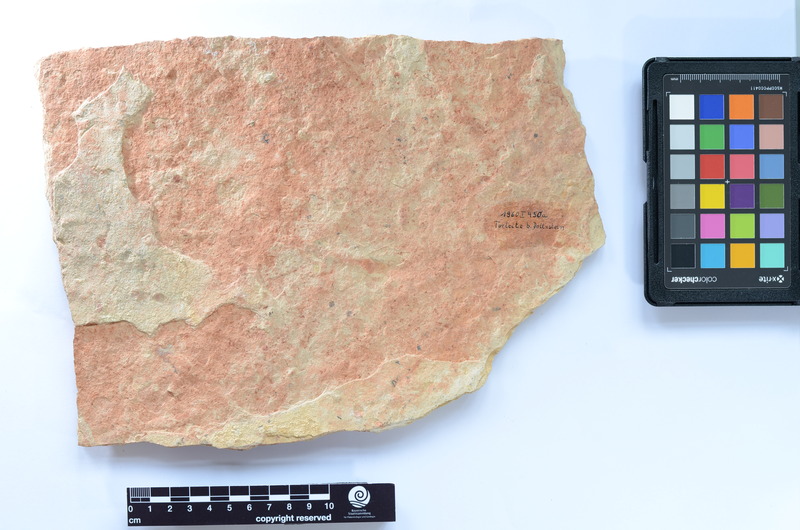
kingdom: Animalia
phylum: Chordata
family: Ascalaboidae
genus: Tharsis
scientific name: Tharsis dubius
